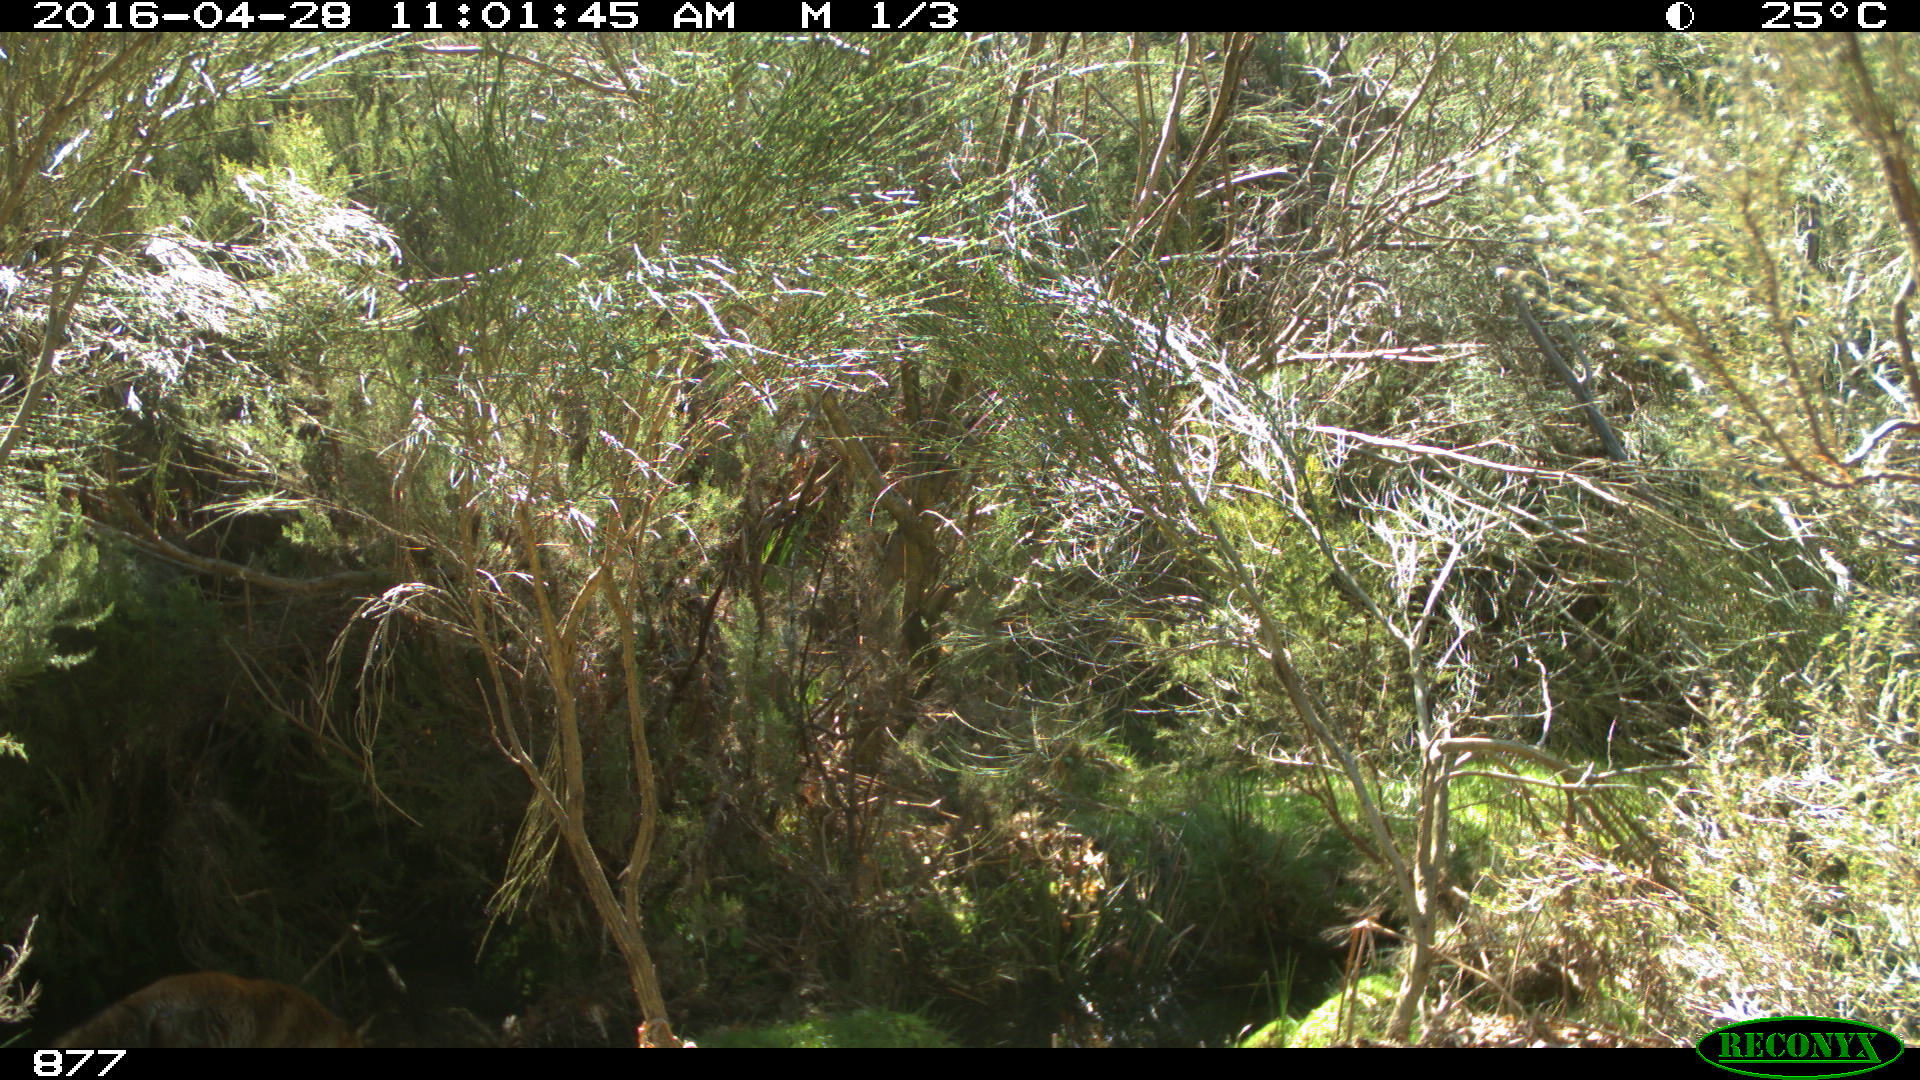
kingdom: Animalia
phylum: Chordata
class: Mammalia
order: Carnivora
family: Canidae
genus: Vulpes
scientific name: Vulpes vulpes
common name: Red fox
